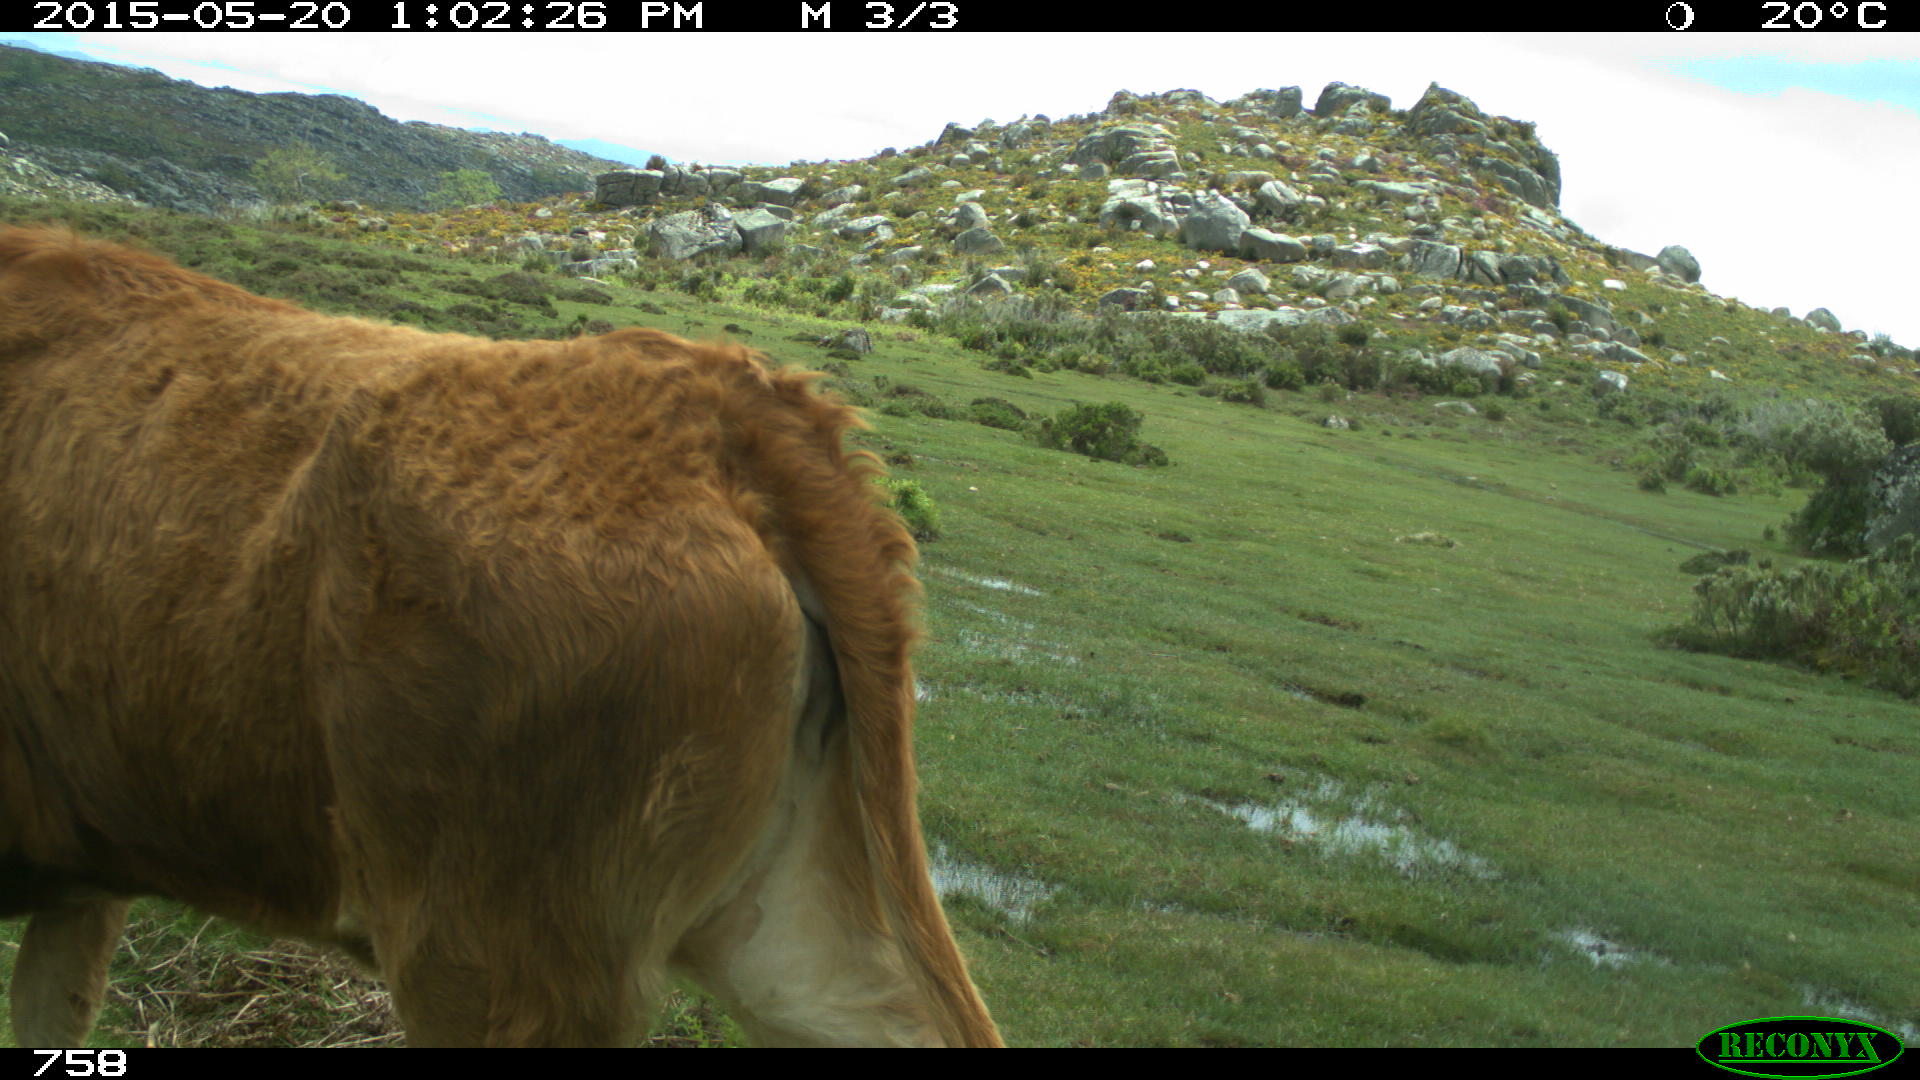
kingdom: Animalia
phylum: Chordata
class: Mammalia
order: Artiodactyla
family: Bovidae
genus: Bos
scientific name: Bos taurus
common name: Domesticated cattle
